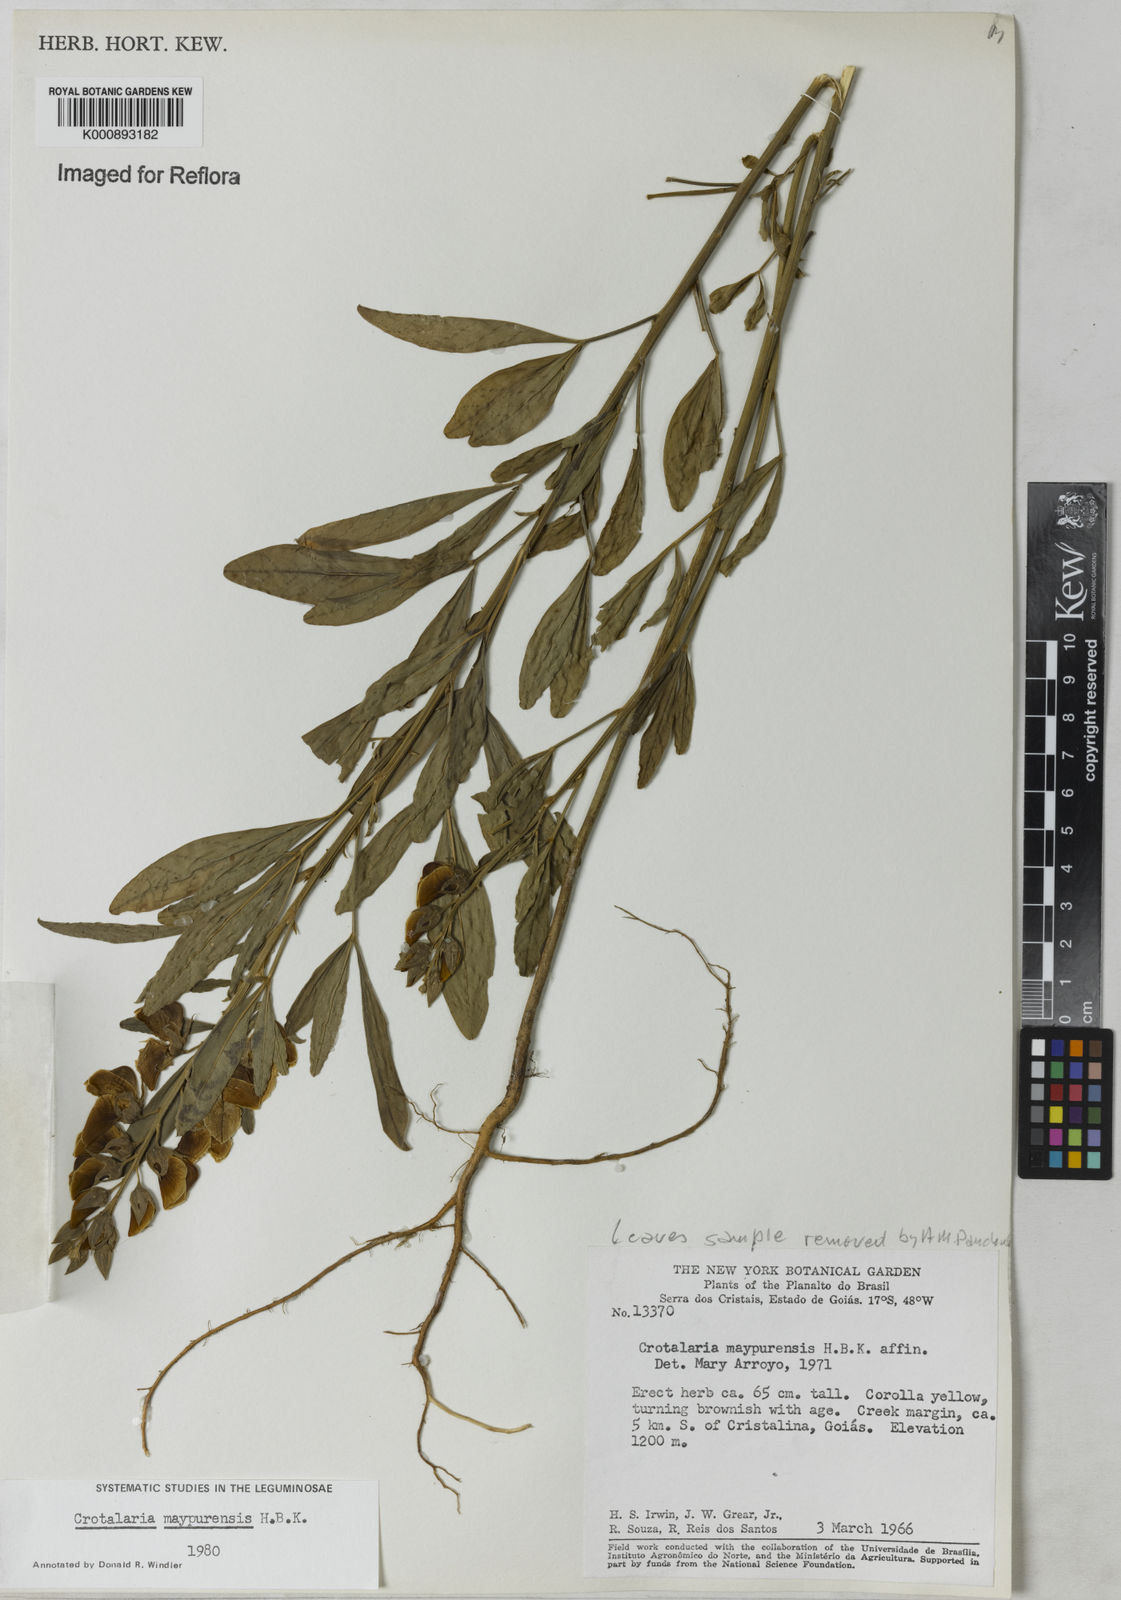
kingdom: Plantae
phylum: Tracheophyta
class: Magnoliopsida
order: Fabales
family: Fabaceae
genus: Crotalaria
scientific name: Crotalaria maypurensis
